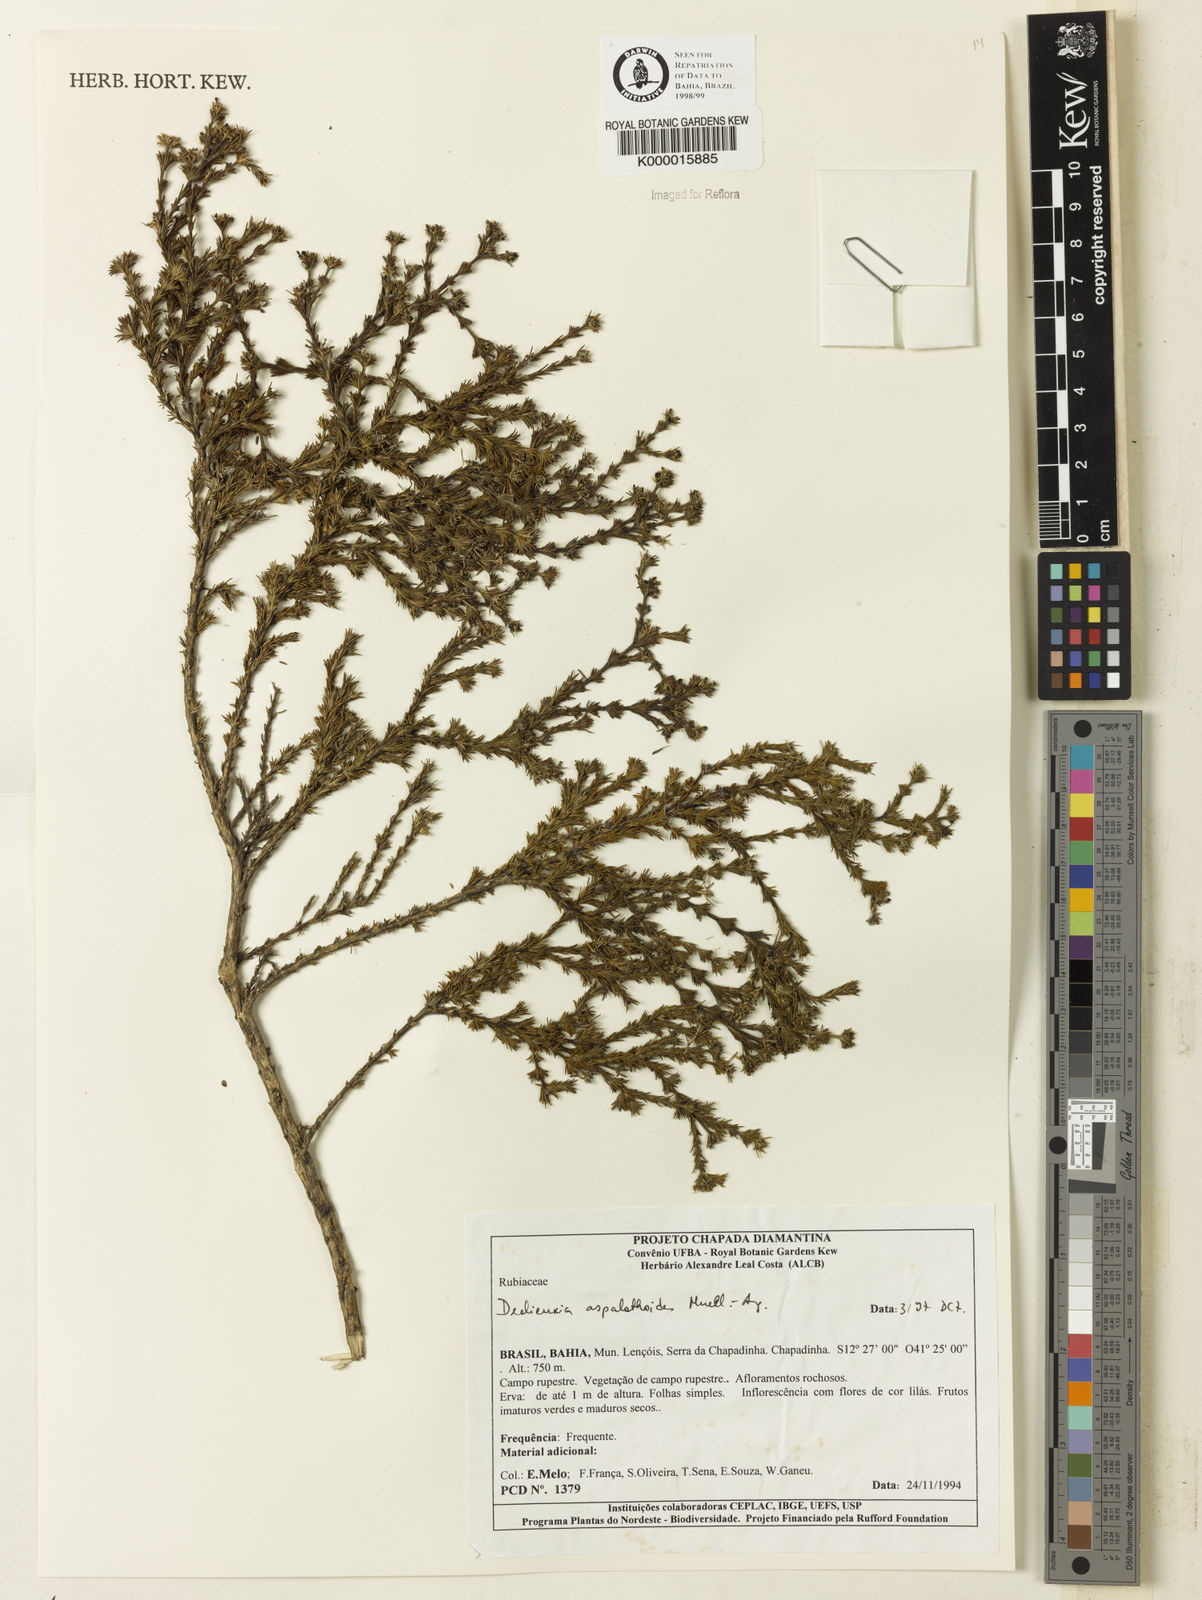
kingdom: Plantae
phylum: Tracheophyta
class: Magnoliopsida
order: Gentianales
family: Rubiaceae
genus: Declieuxia
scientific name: Declieuxia aspalathoides
